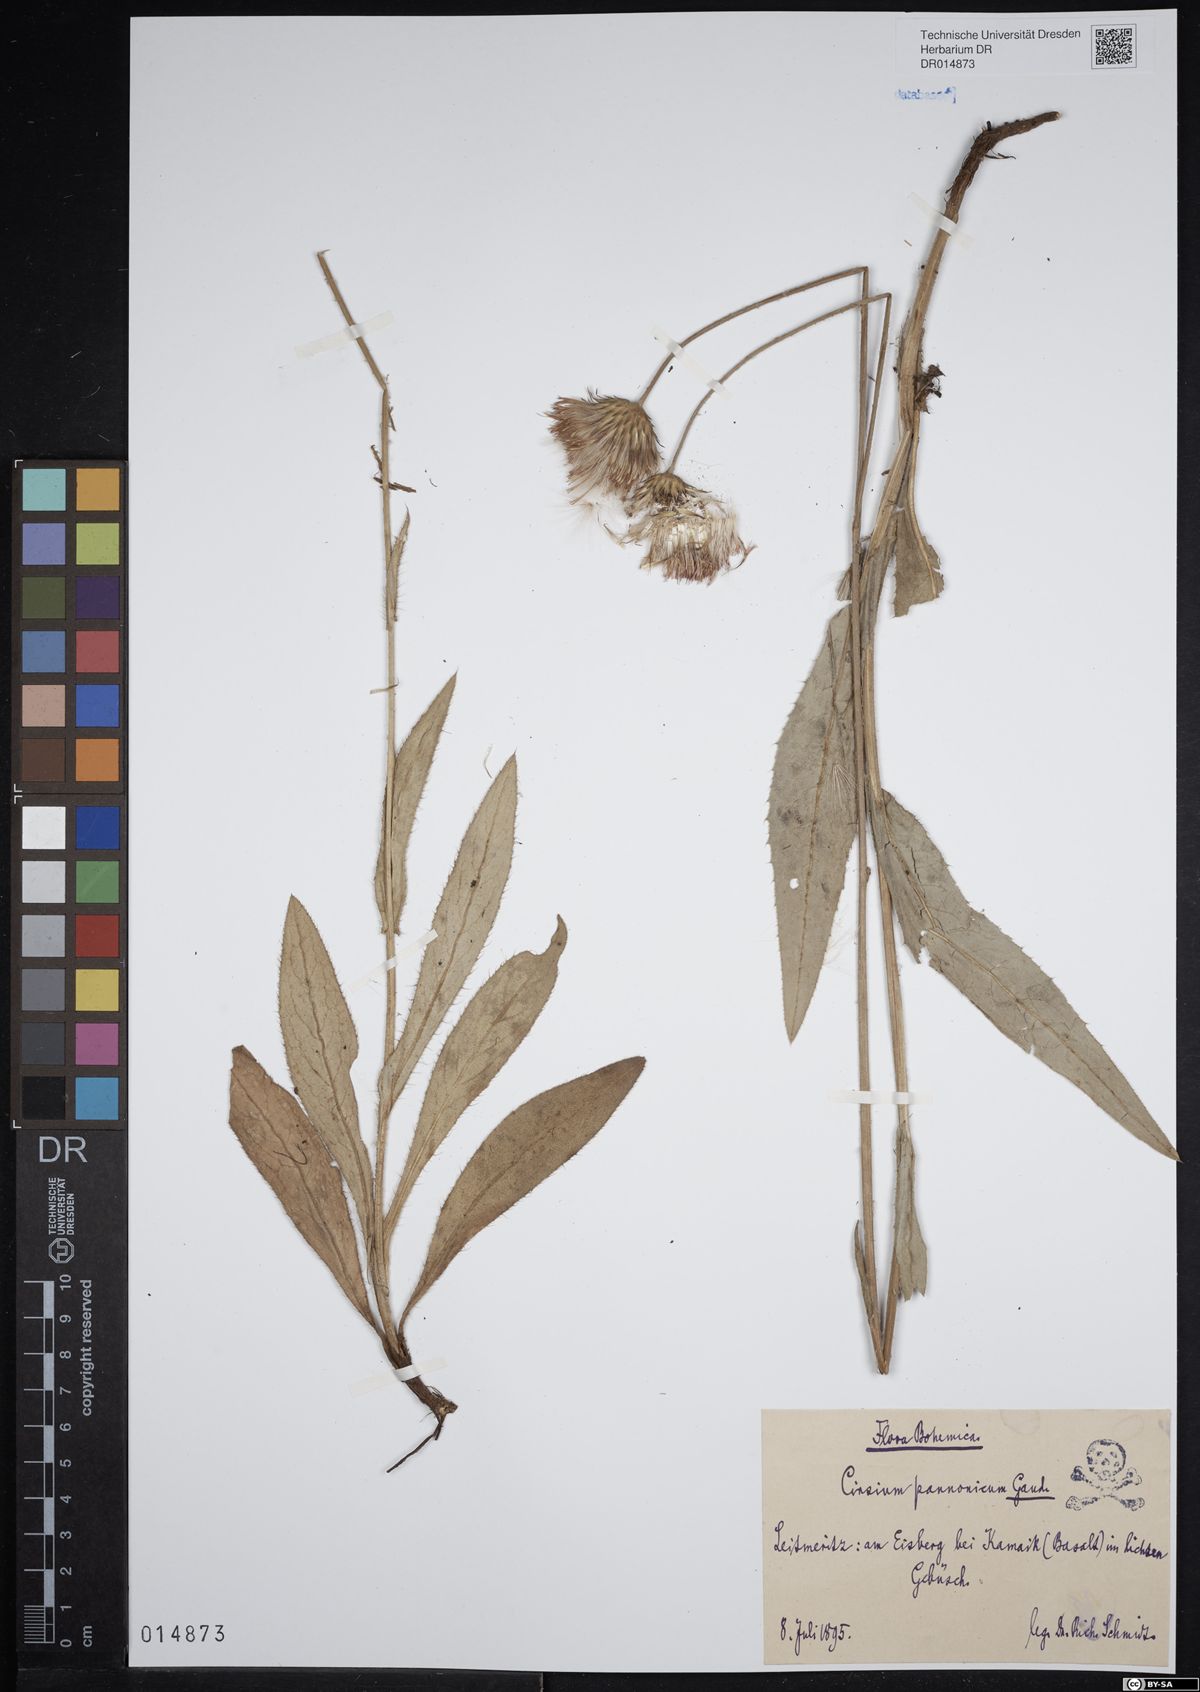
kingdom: Plantae
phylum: Tracheophyta
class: Magnoliopsida
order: Asterales
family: Asteraceae
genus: Cirsium
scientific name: Cirsium pannonicum
